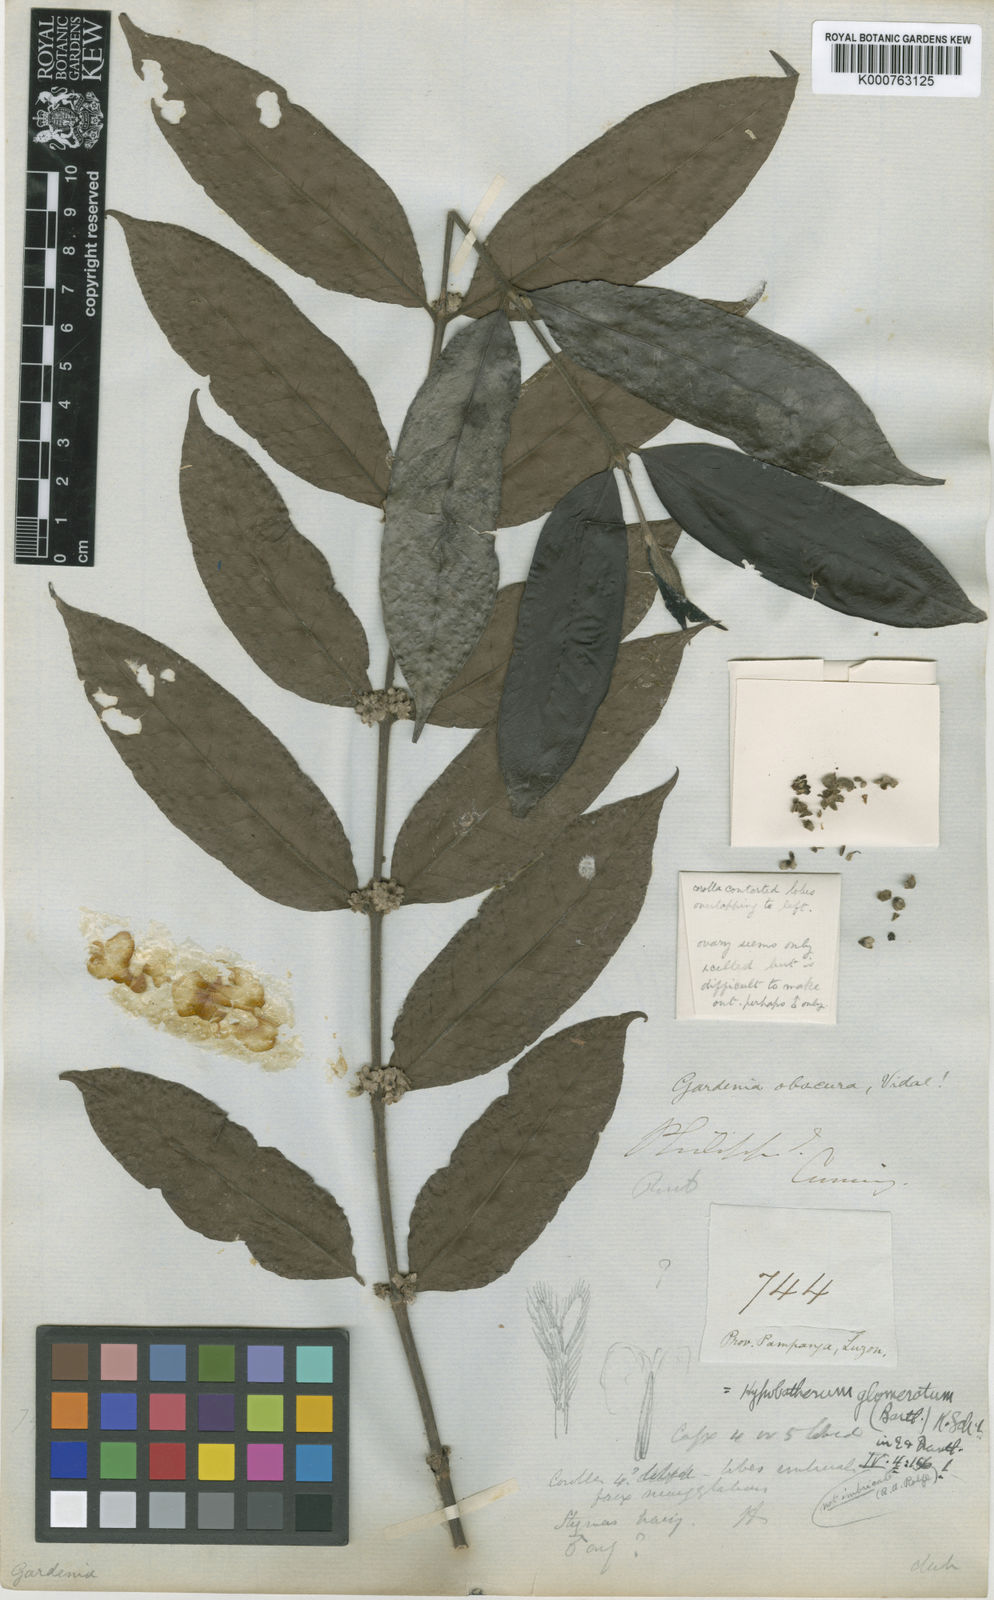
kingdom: Plantae
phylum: Tracheophyta
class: Magnoliopsida
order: Gentianales
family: Rubiaceae
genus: Villaria
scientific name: Villaria glomerata
